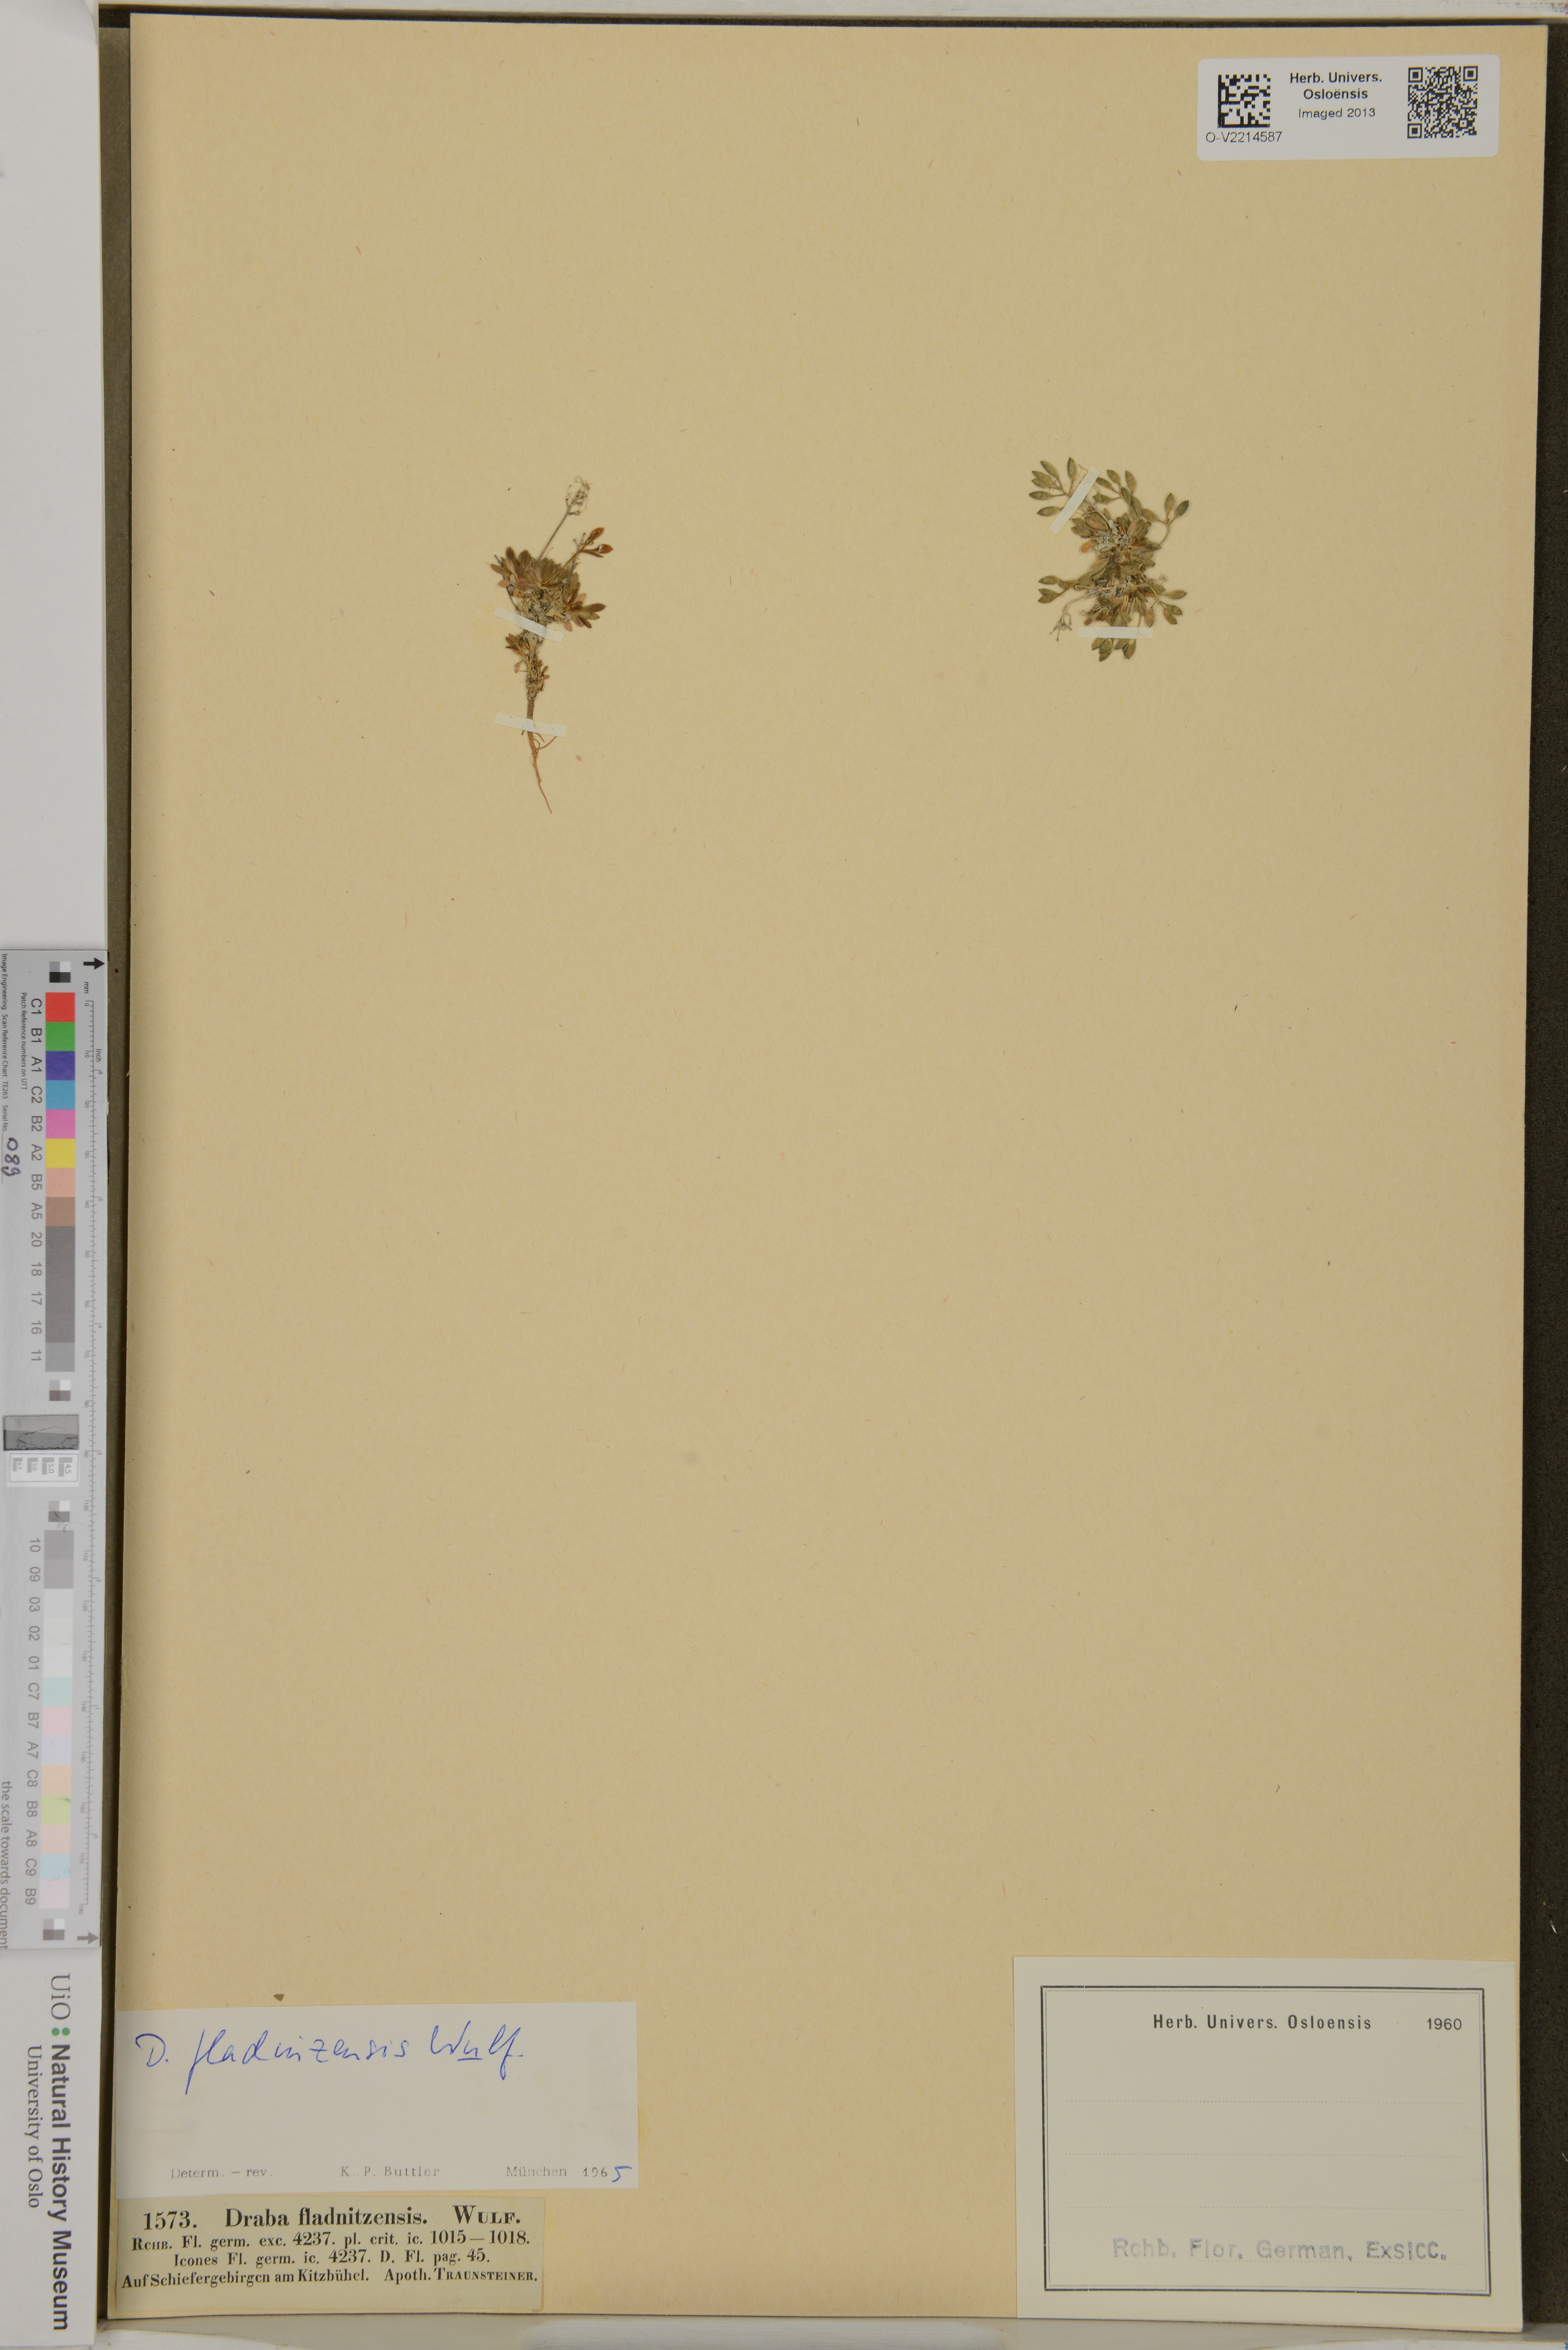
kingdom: Plantae
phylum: Tracheophyta
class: Magnoliopsida
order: Brassicales
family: Brassicaceae
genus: Draba
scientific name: Draba fladnizensis
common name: Austrian draba
